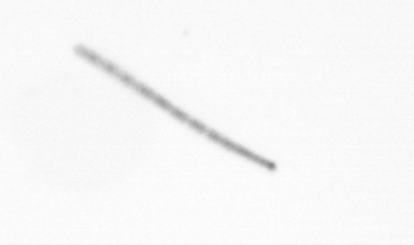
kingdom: Chromista
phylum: Ochrophyta
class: Bacillariophyceae
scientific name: Bacillariophyceae
